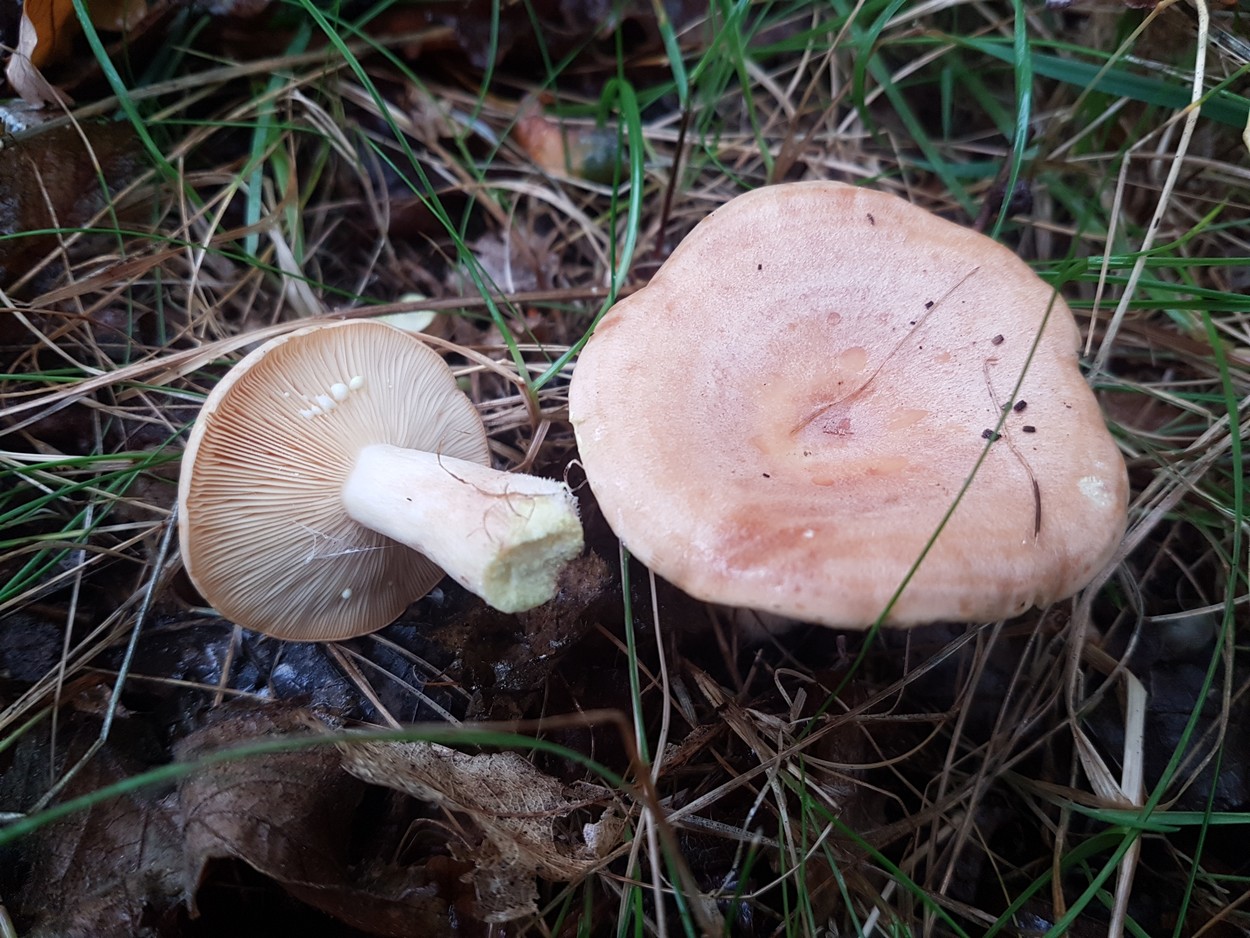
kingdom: Fungi
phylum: Basidiomycota
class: Agaricomycetes
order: Russulales
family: Russulaceae
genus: Lactarius
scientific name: Lactarius chrysorrheus
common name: svovlmælket mælkehat
